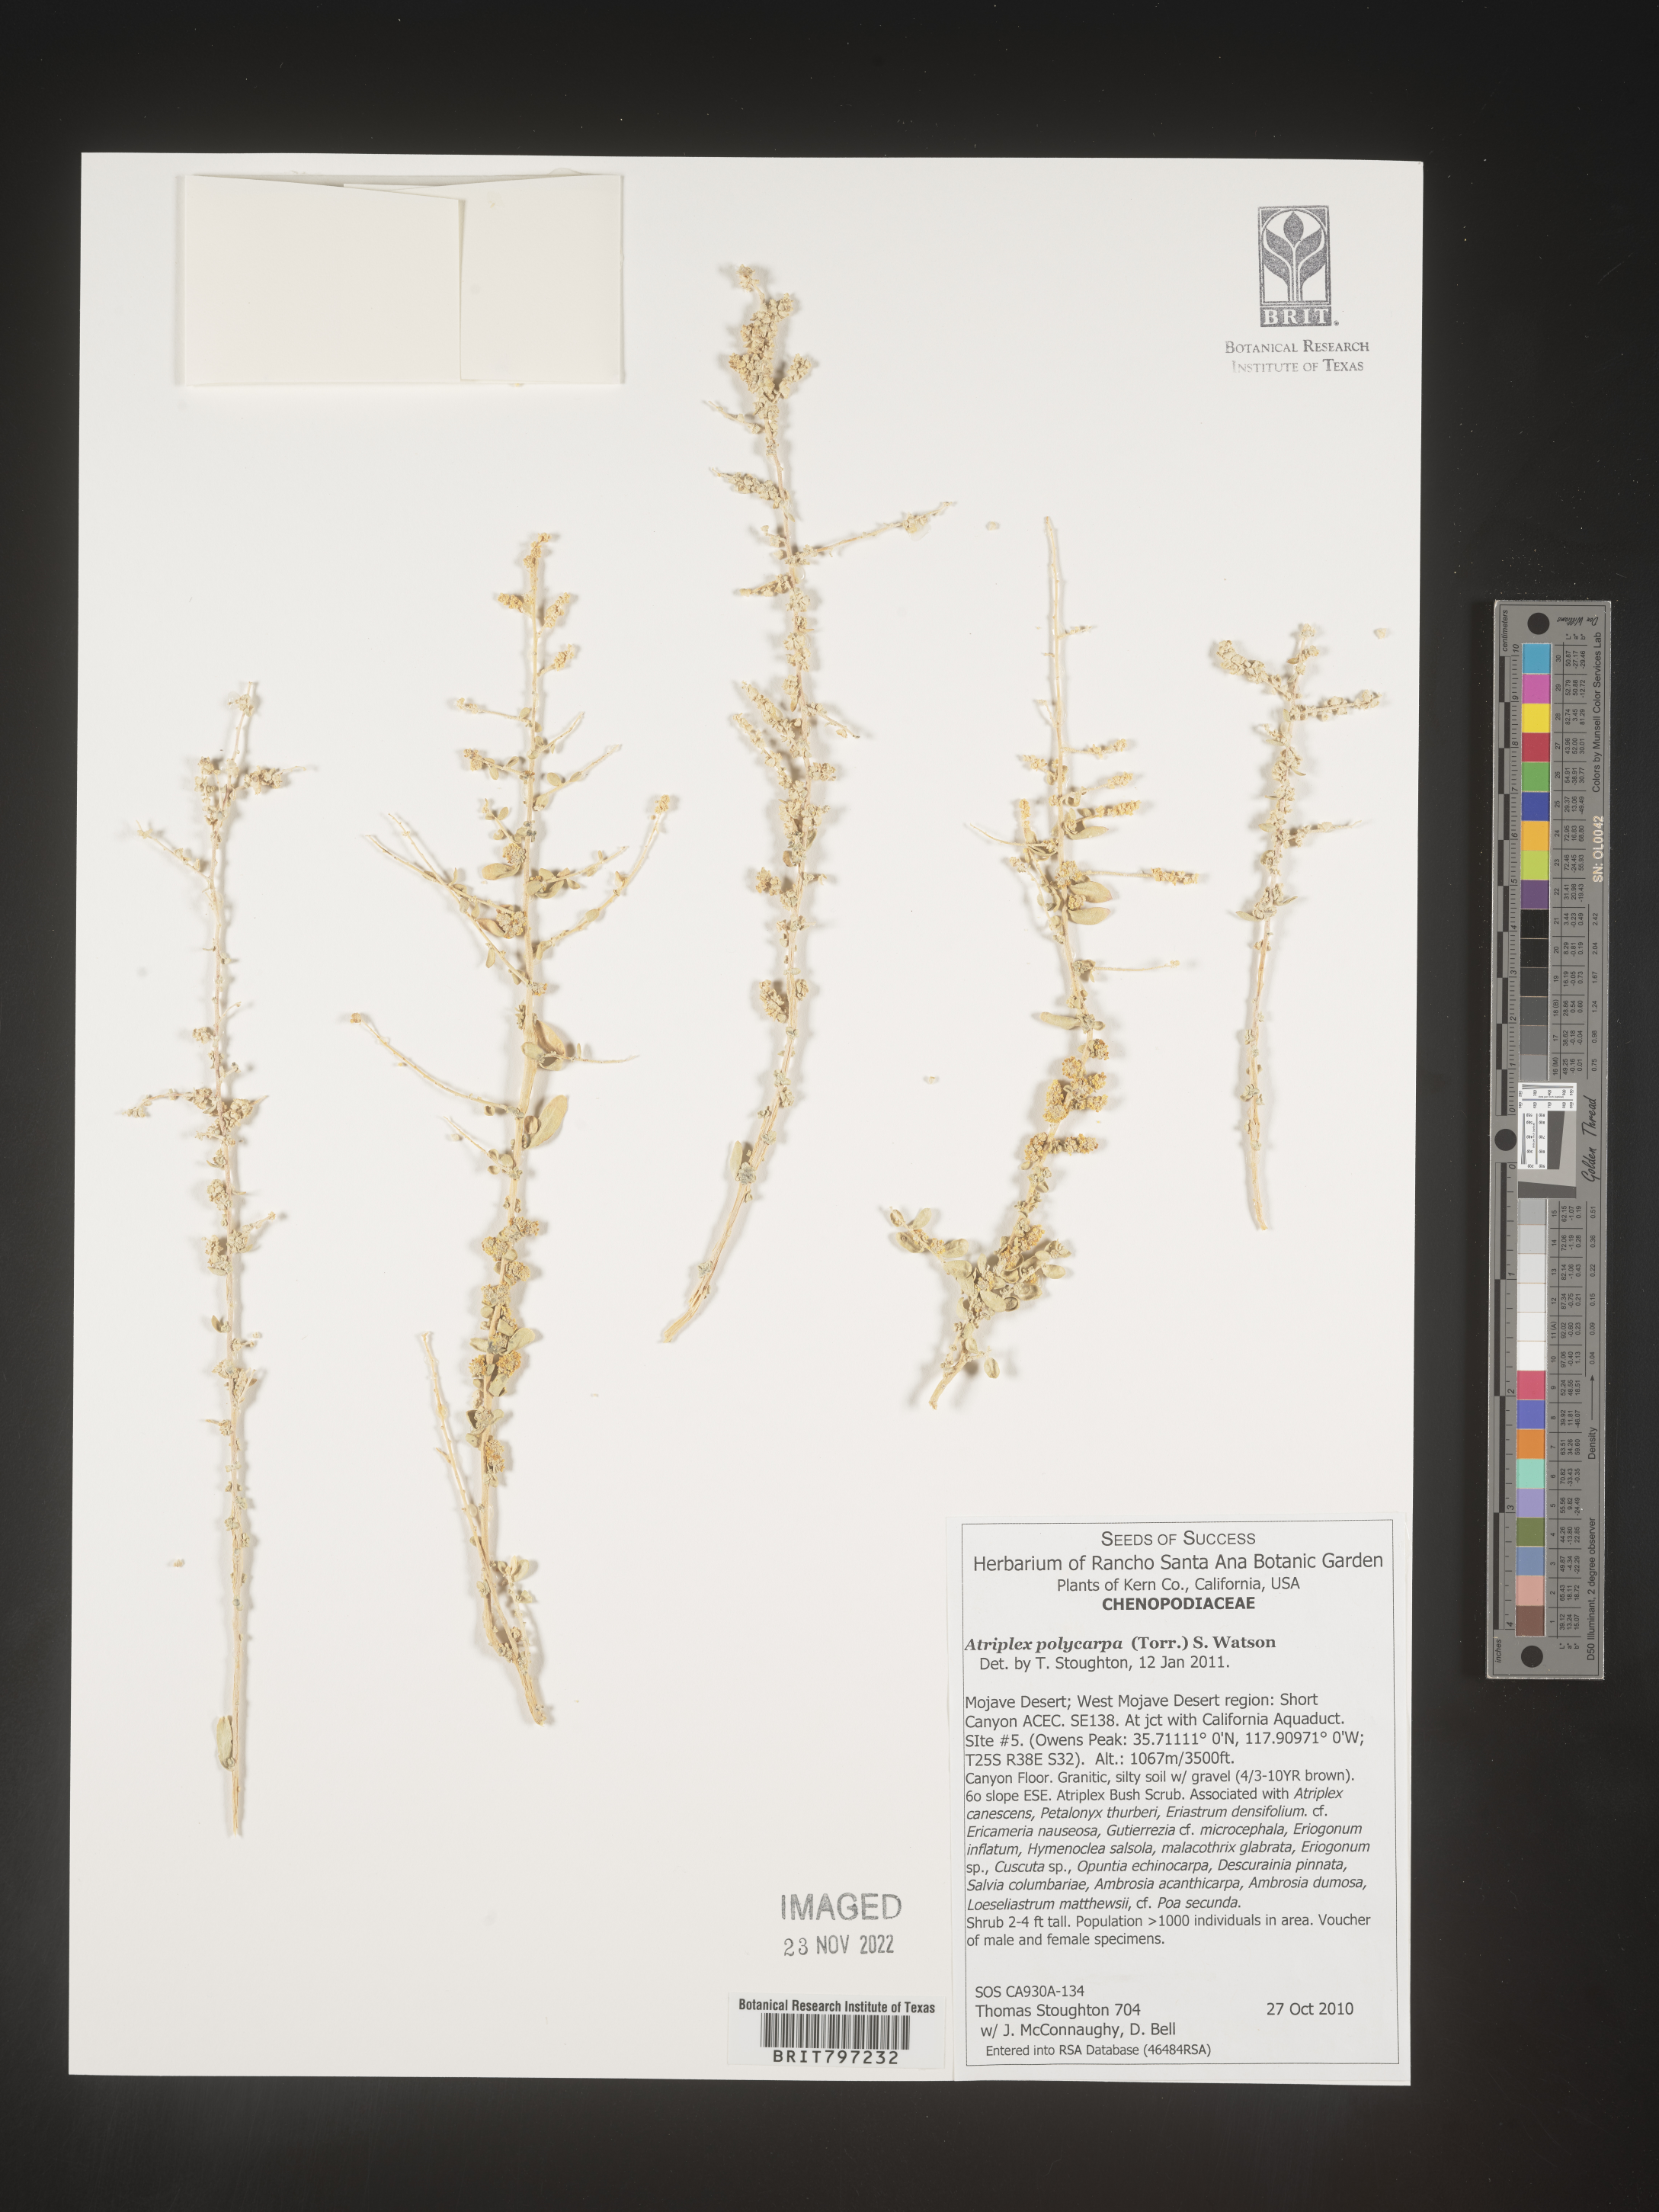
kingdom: Plantae
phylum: Tracheophyta
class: Magnoliopsida
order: Caryophyllales
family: Amaranthaceae
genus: Atriplex
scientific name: Atriplex polycarpa
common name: Desert saltbush
